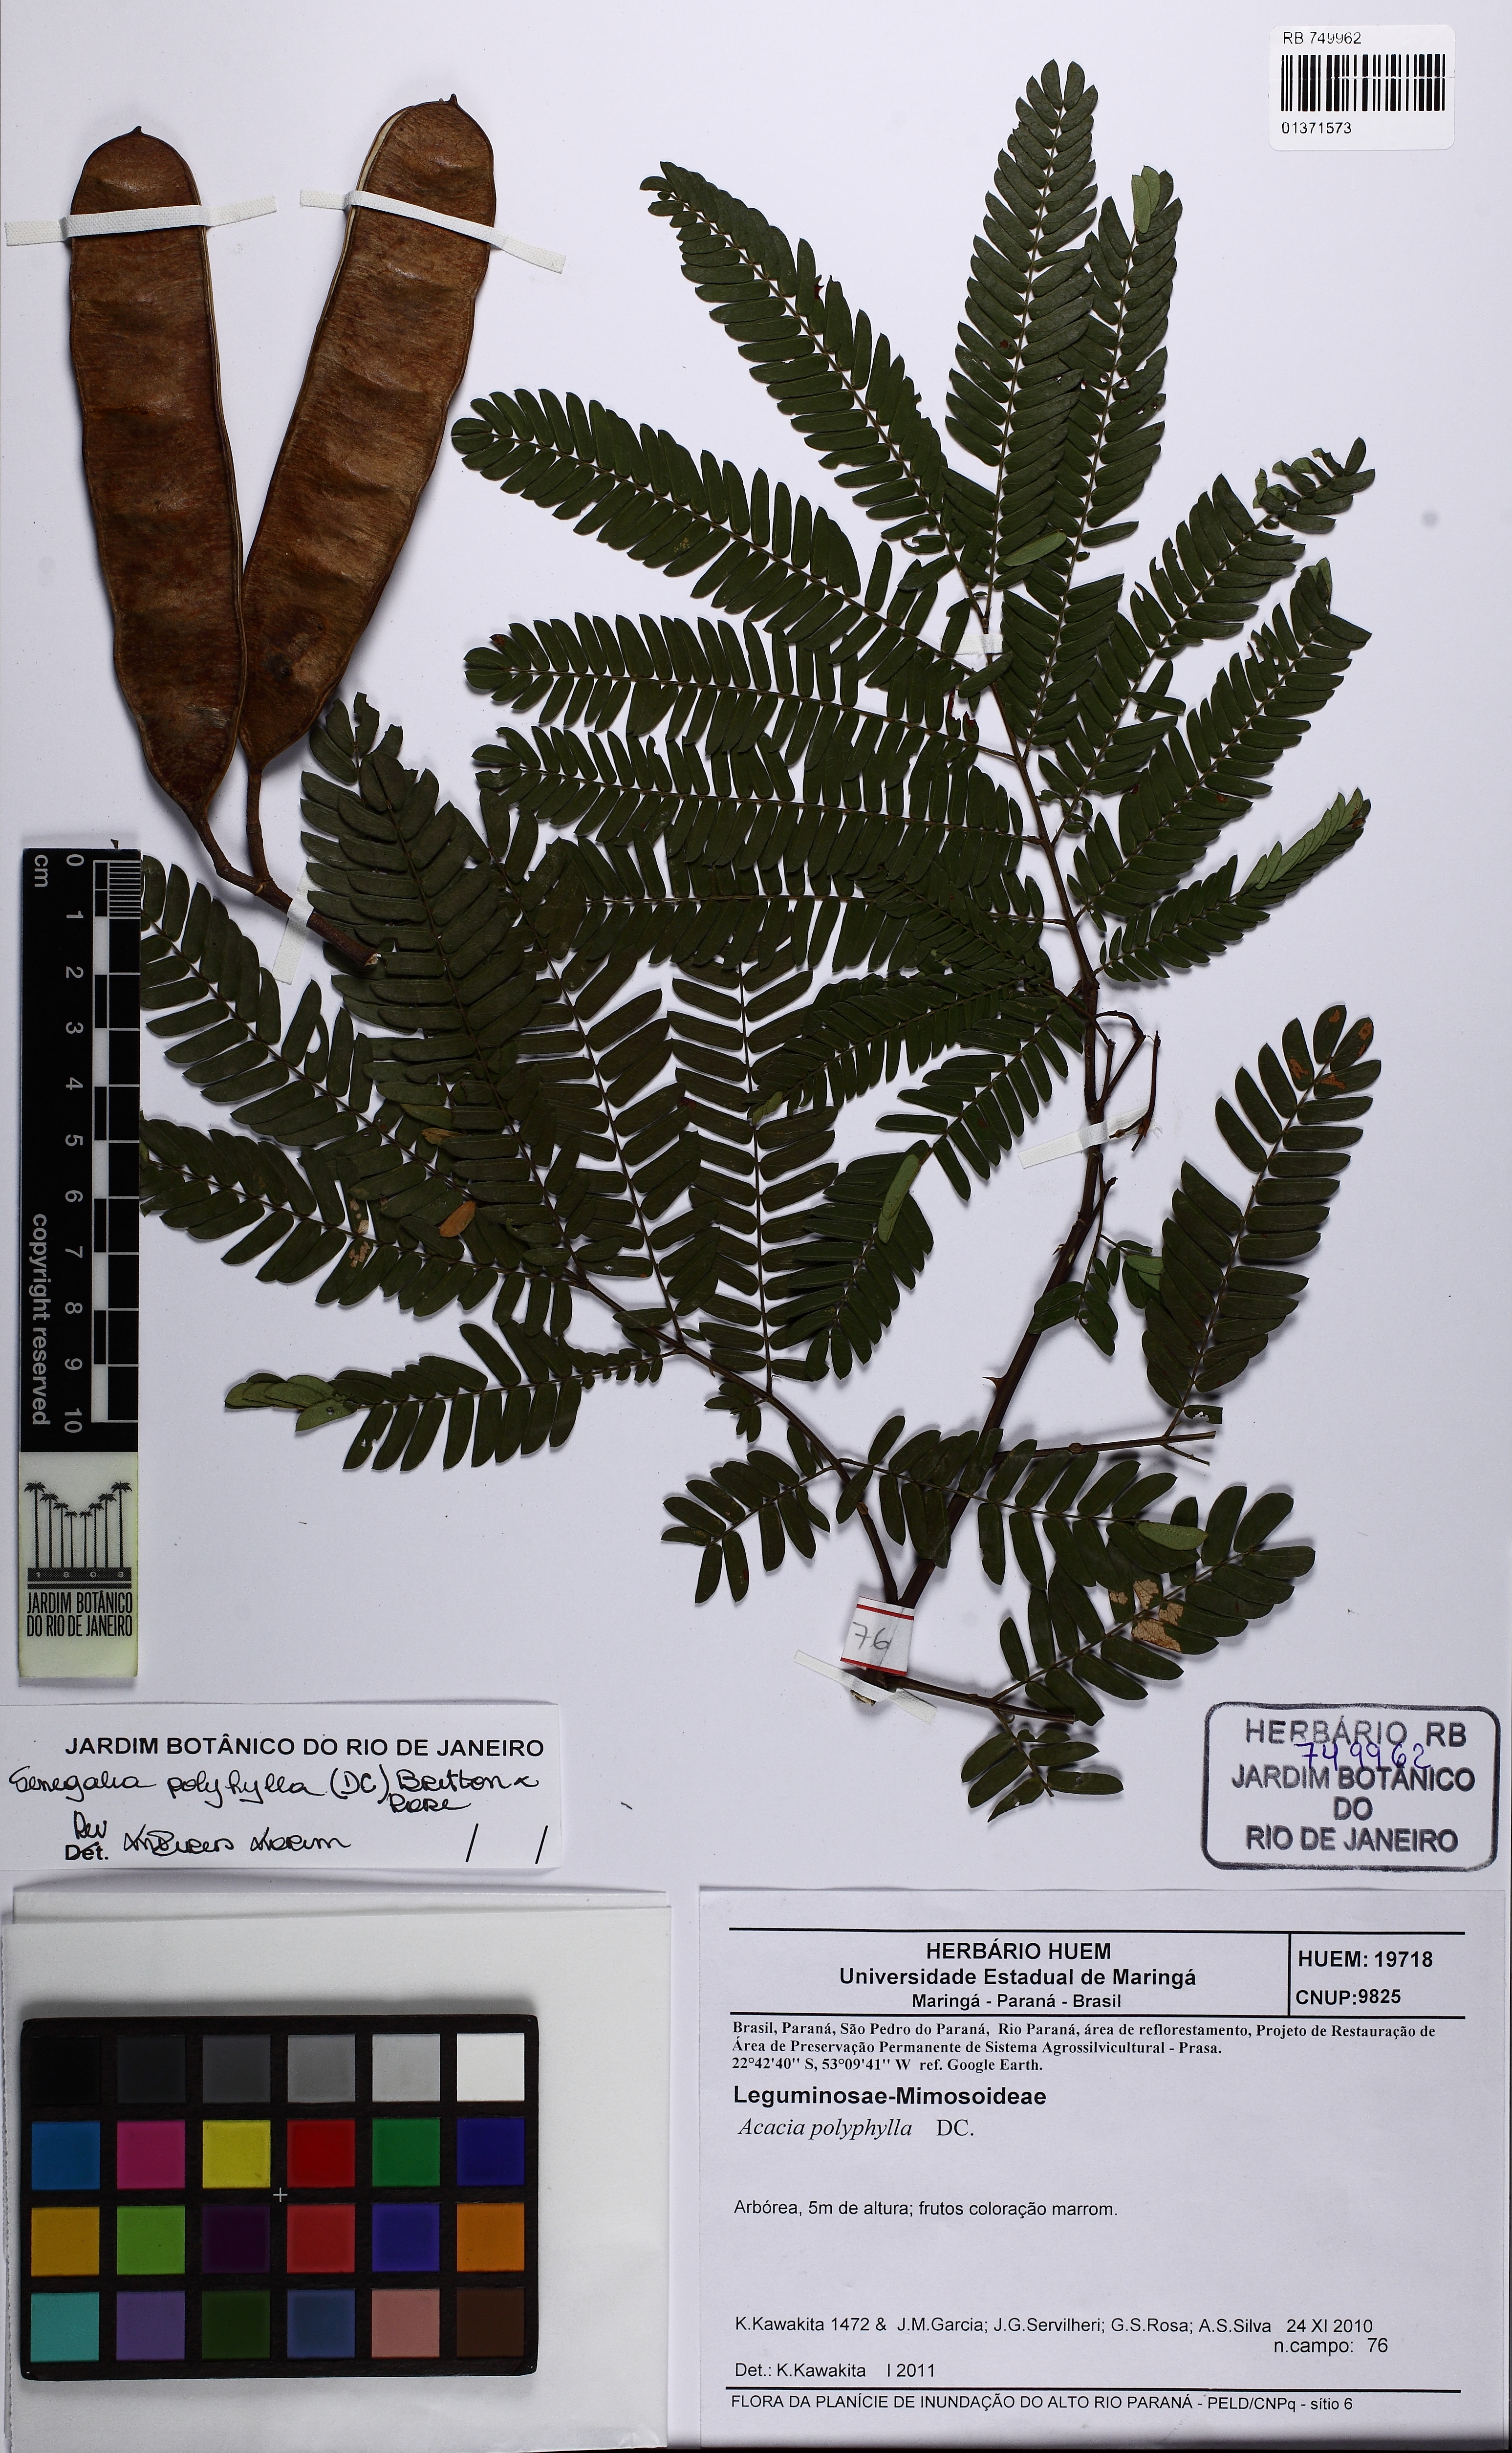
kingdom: Plantae
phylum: Tracheophyta
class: Magnoliopsida
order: Fabales
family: Fabaceae
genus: Senegalia
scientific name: Senegalia polyphylla
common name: White-tamarind
